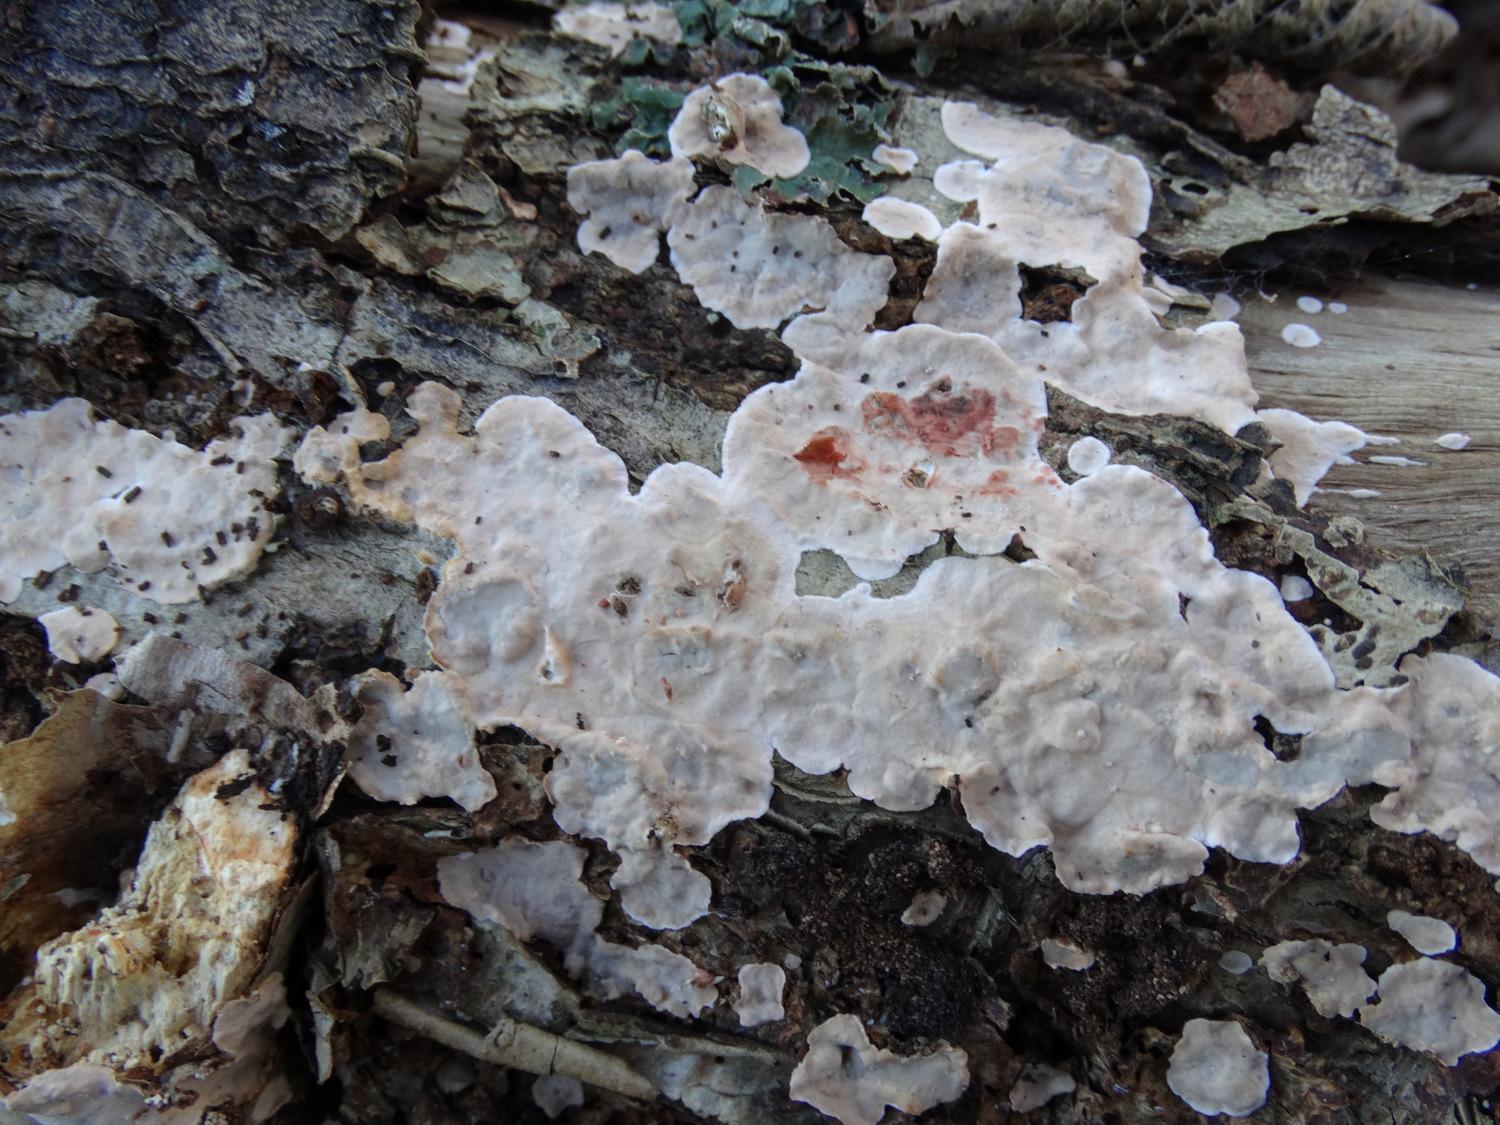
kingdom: Fungi
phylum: Basidiomycota
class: Agaricomycetes
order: Russulales
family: Stereaceae
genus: Stereum
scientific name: Stereum rugosum
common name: rynket lædersvamp
